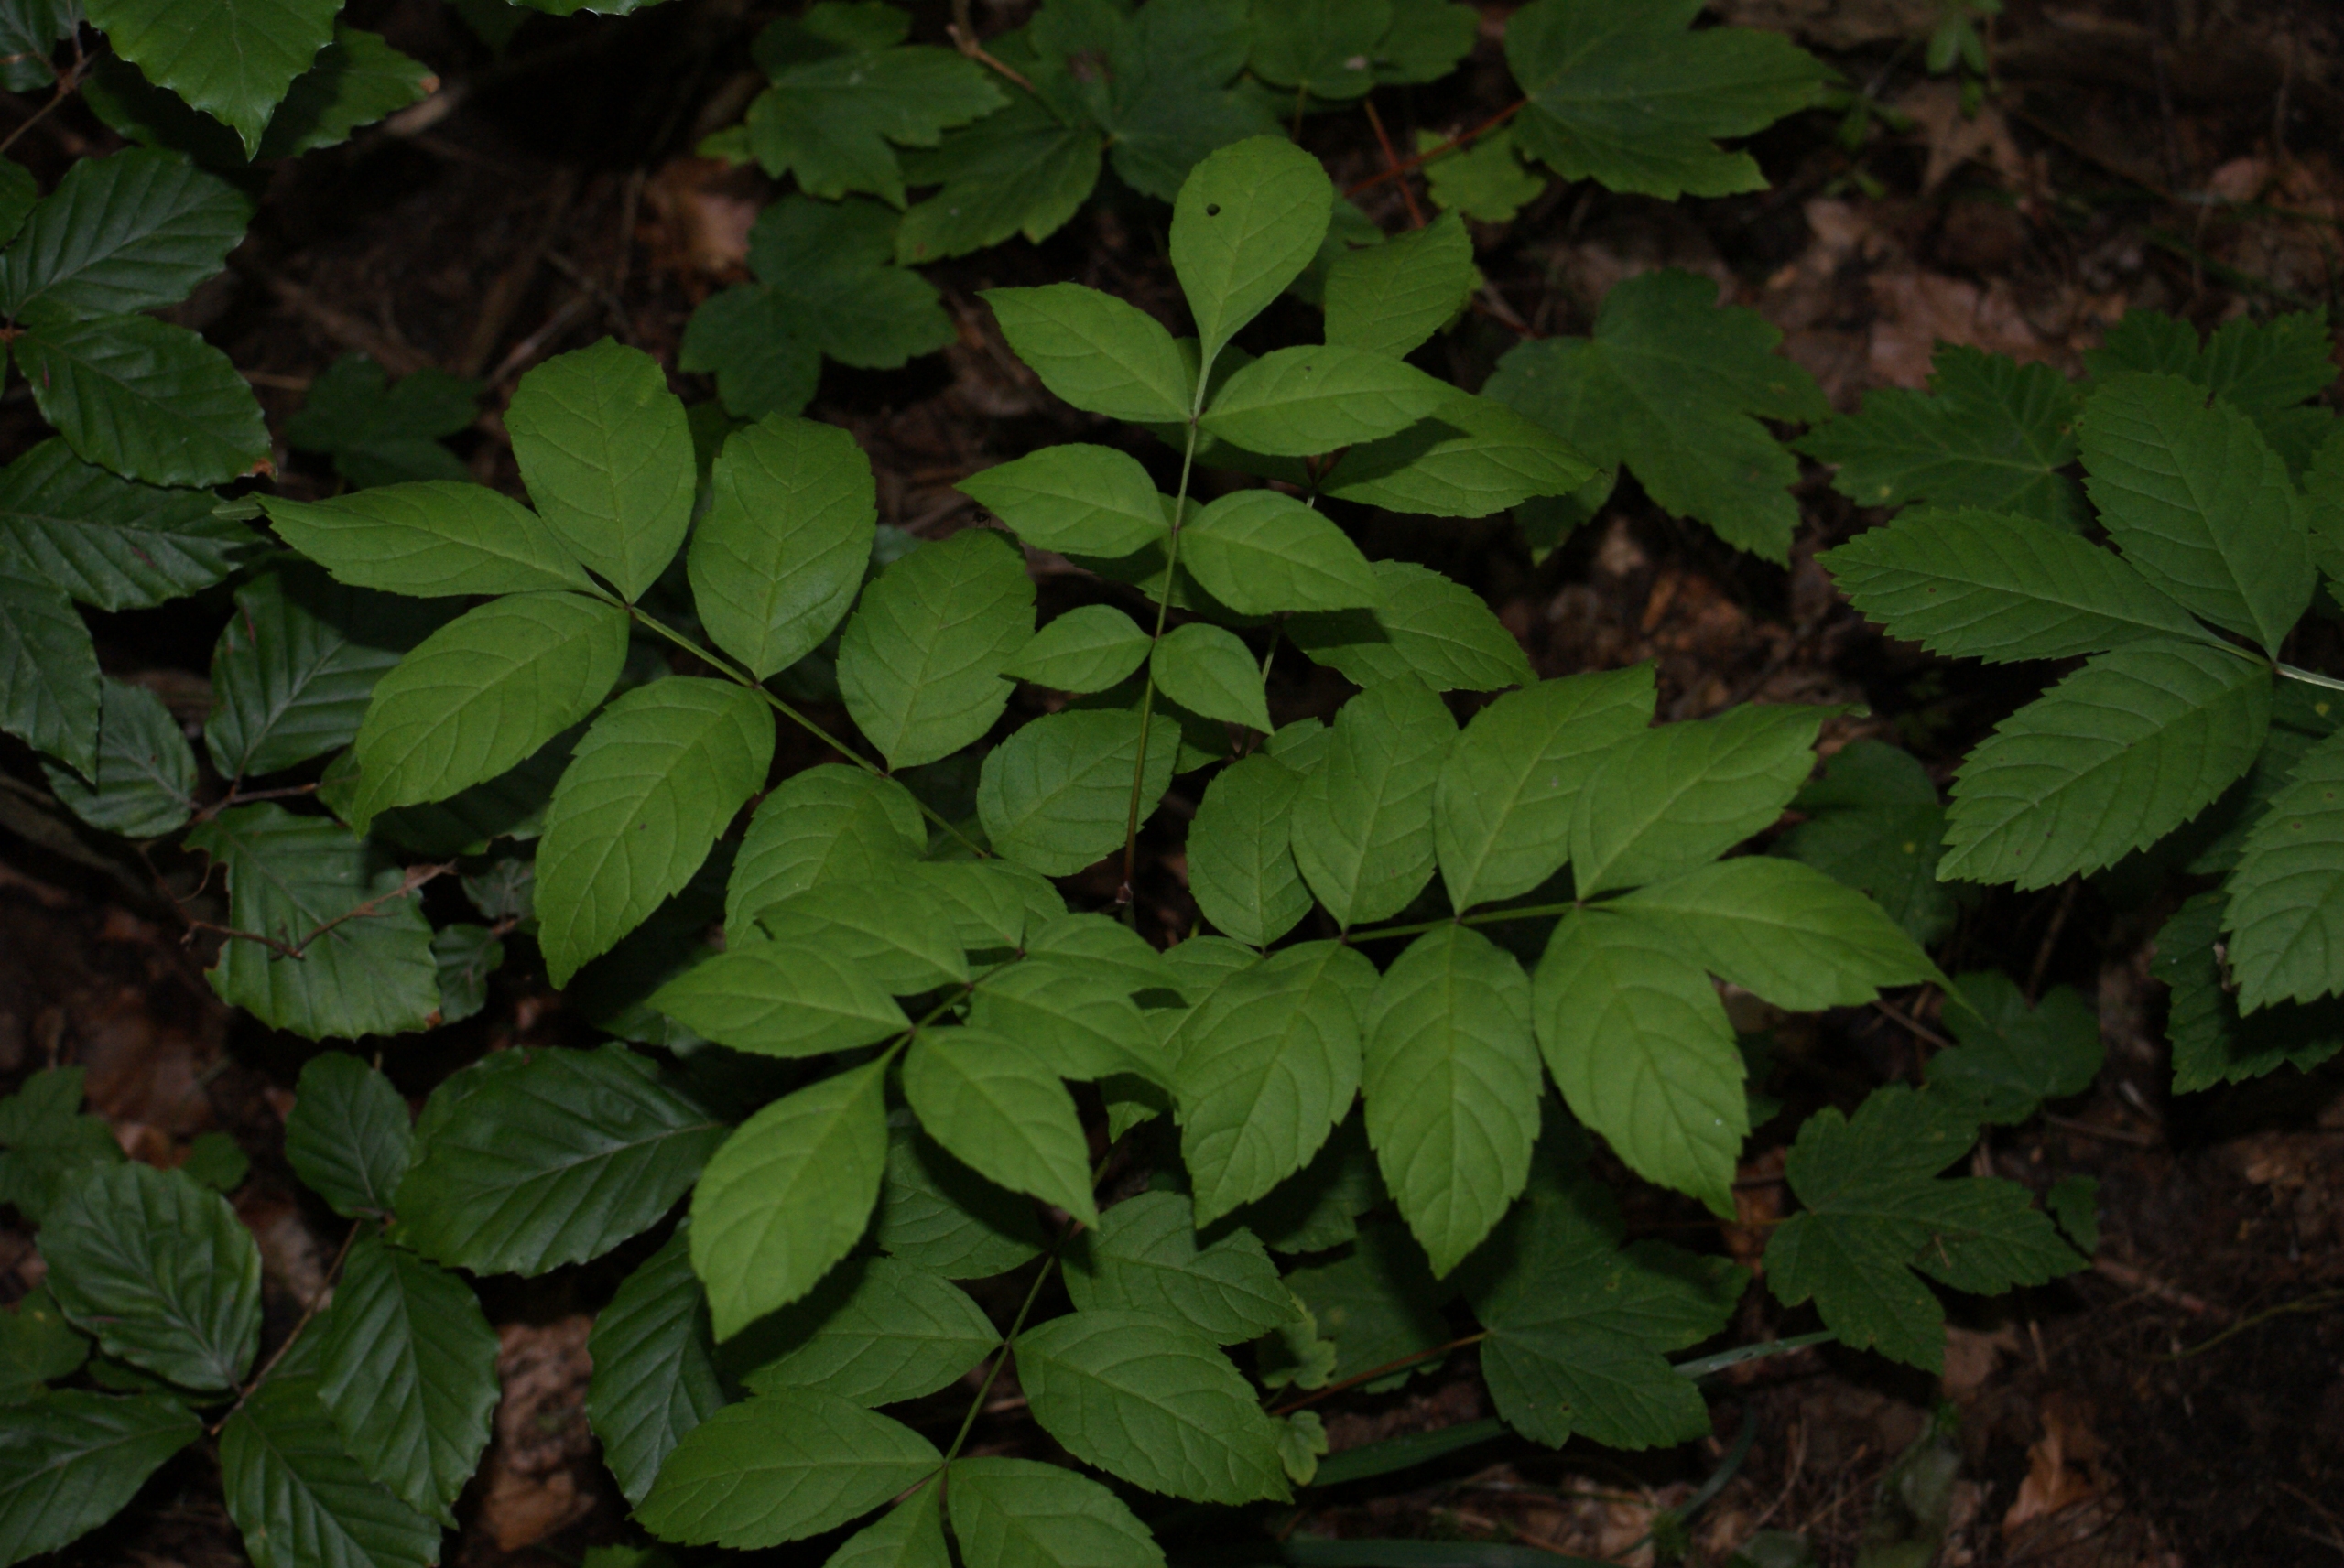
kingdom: Plantae
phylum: Tracheophyta
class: Magnoliopsida
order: Lamiales
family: Oleaceae
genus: Fraxinus
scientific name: Fraxinus excelsior
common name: Ask
